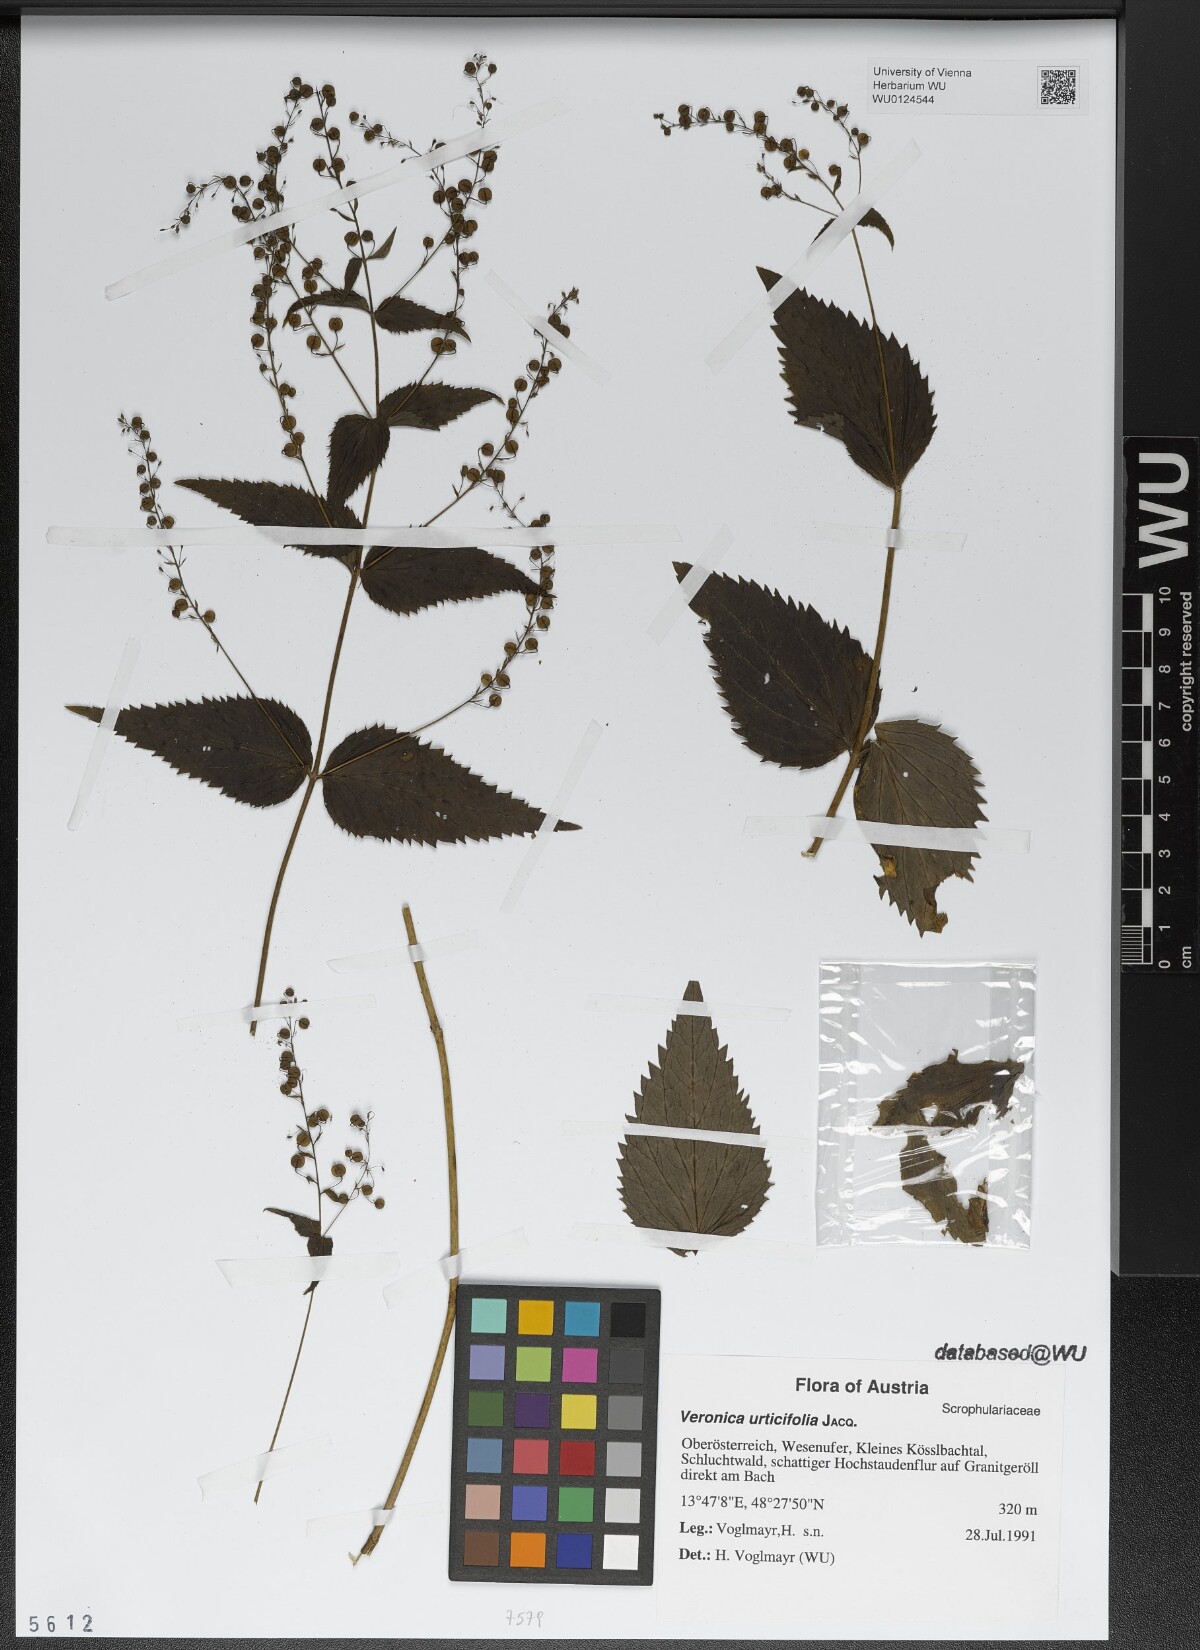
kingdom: Plantae
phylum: Tracheophyta
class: Magnoliopsida
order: Lamiales
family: Plantaginaceae
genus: Veronica
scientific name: Veronica urticifolia
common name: Nettle-leaf speedwell
